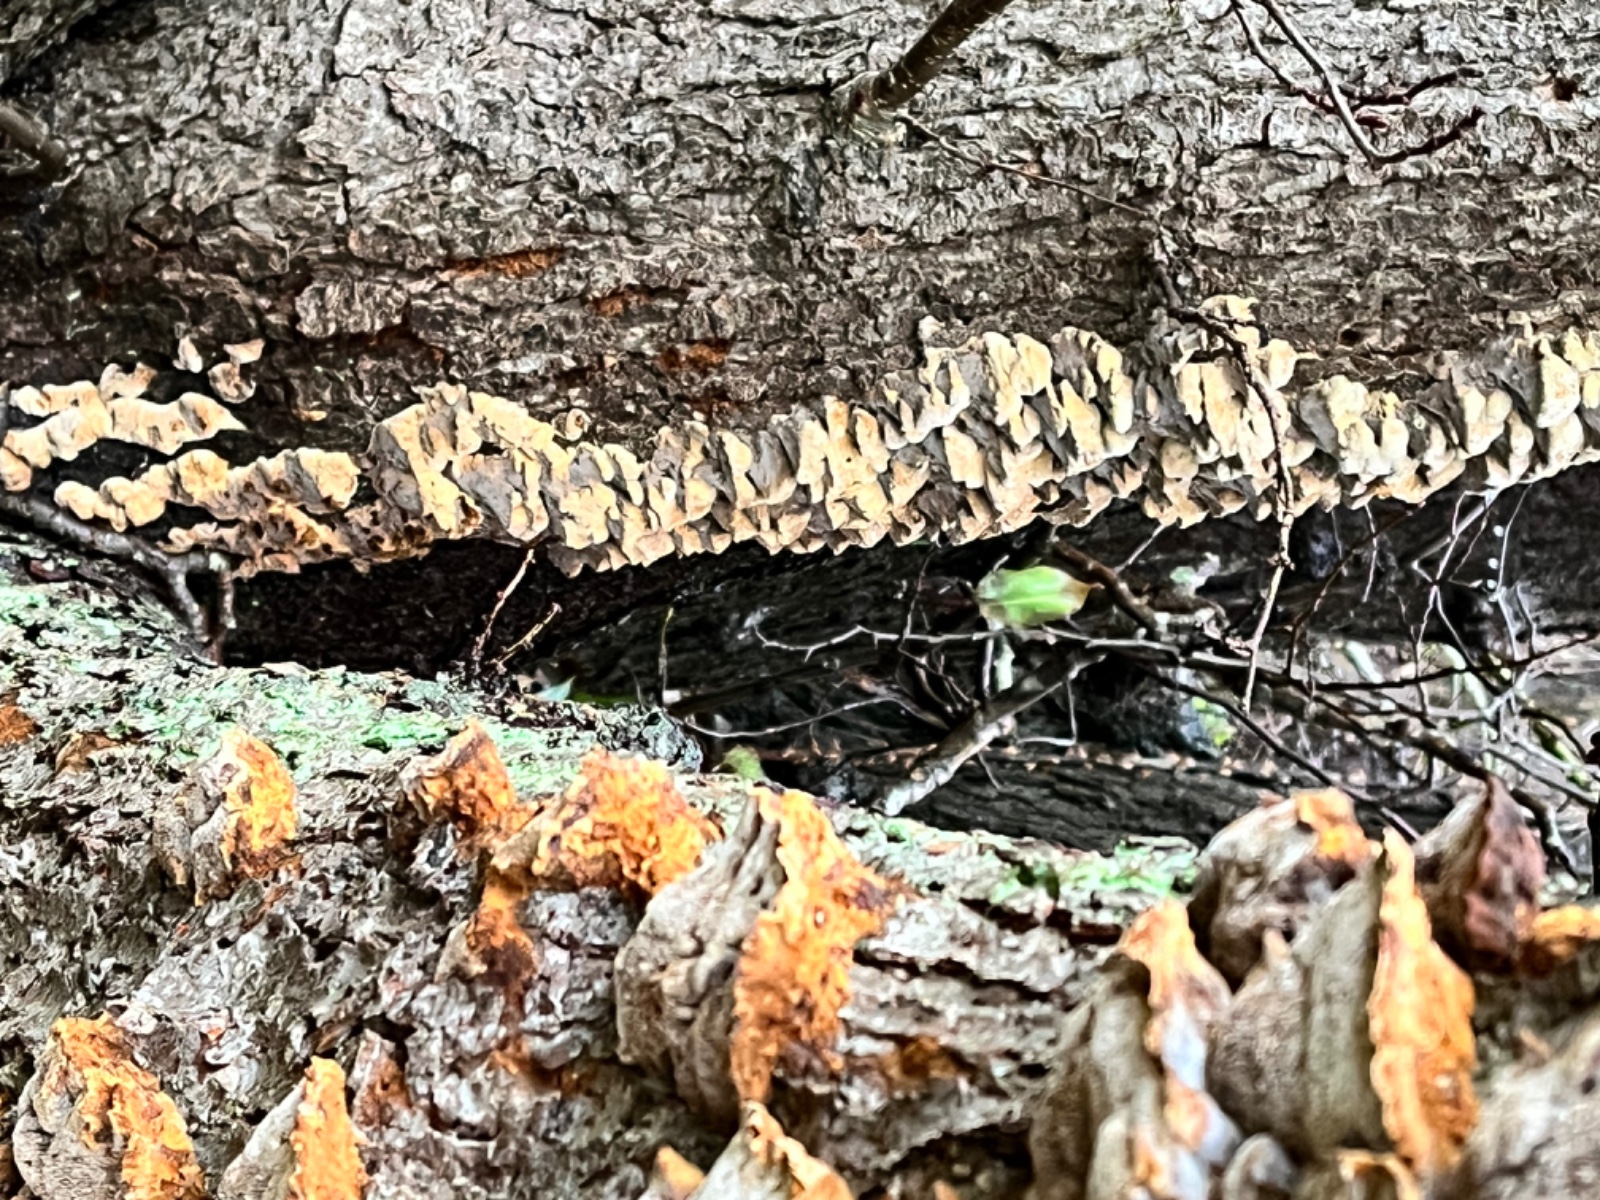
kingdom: Fungi
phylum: Basidiomycota
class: Agaricomycetes
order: Hymenochaetales
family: Hymenochaetaceae
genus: Xanthoporia
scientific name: Xanthoporia radiata
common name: elle-spejlporesvamp
